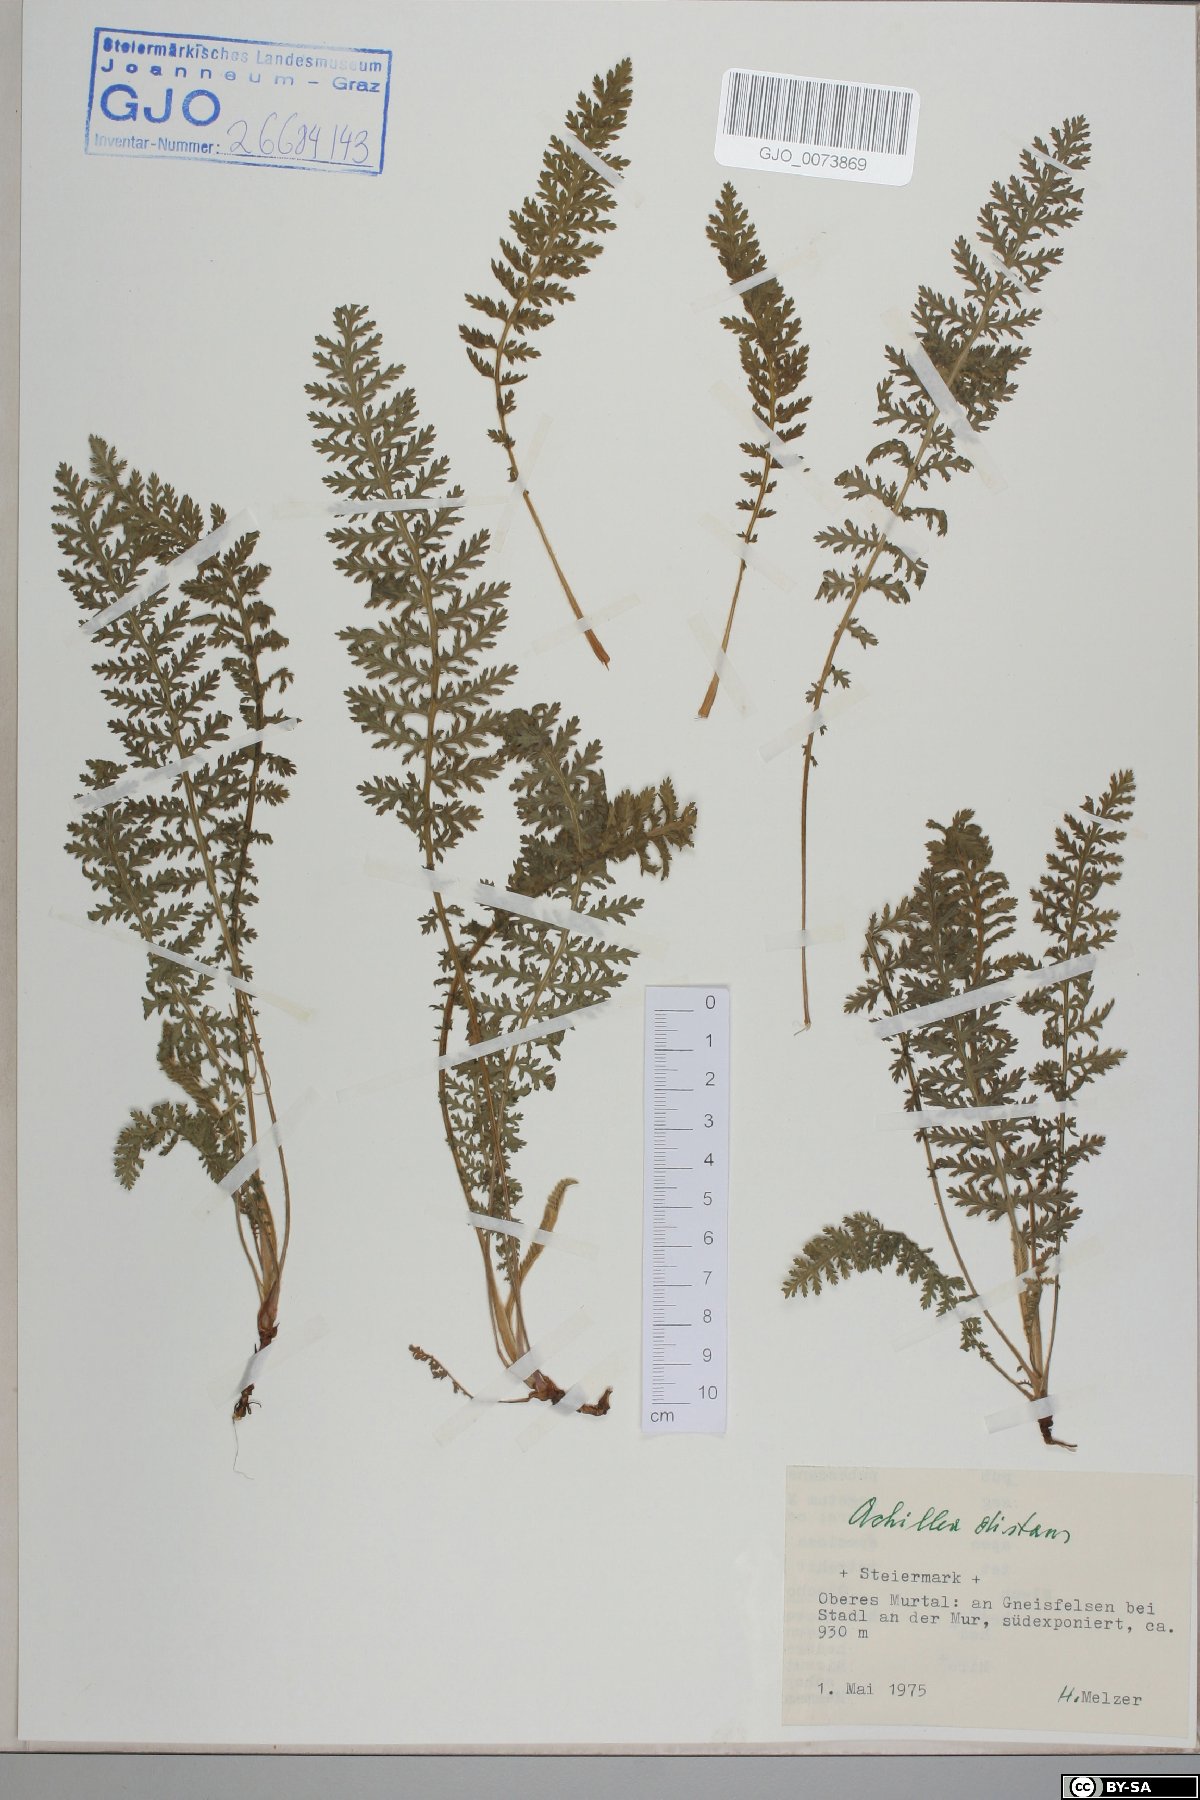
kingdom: Plantae
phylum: Tracheophyta
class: Magnoliopsida
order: Asterales
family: Asteraceae
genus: Achillea
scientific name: Achillea distans
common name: Tall yarrow
